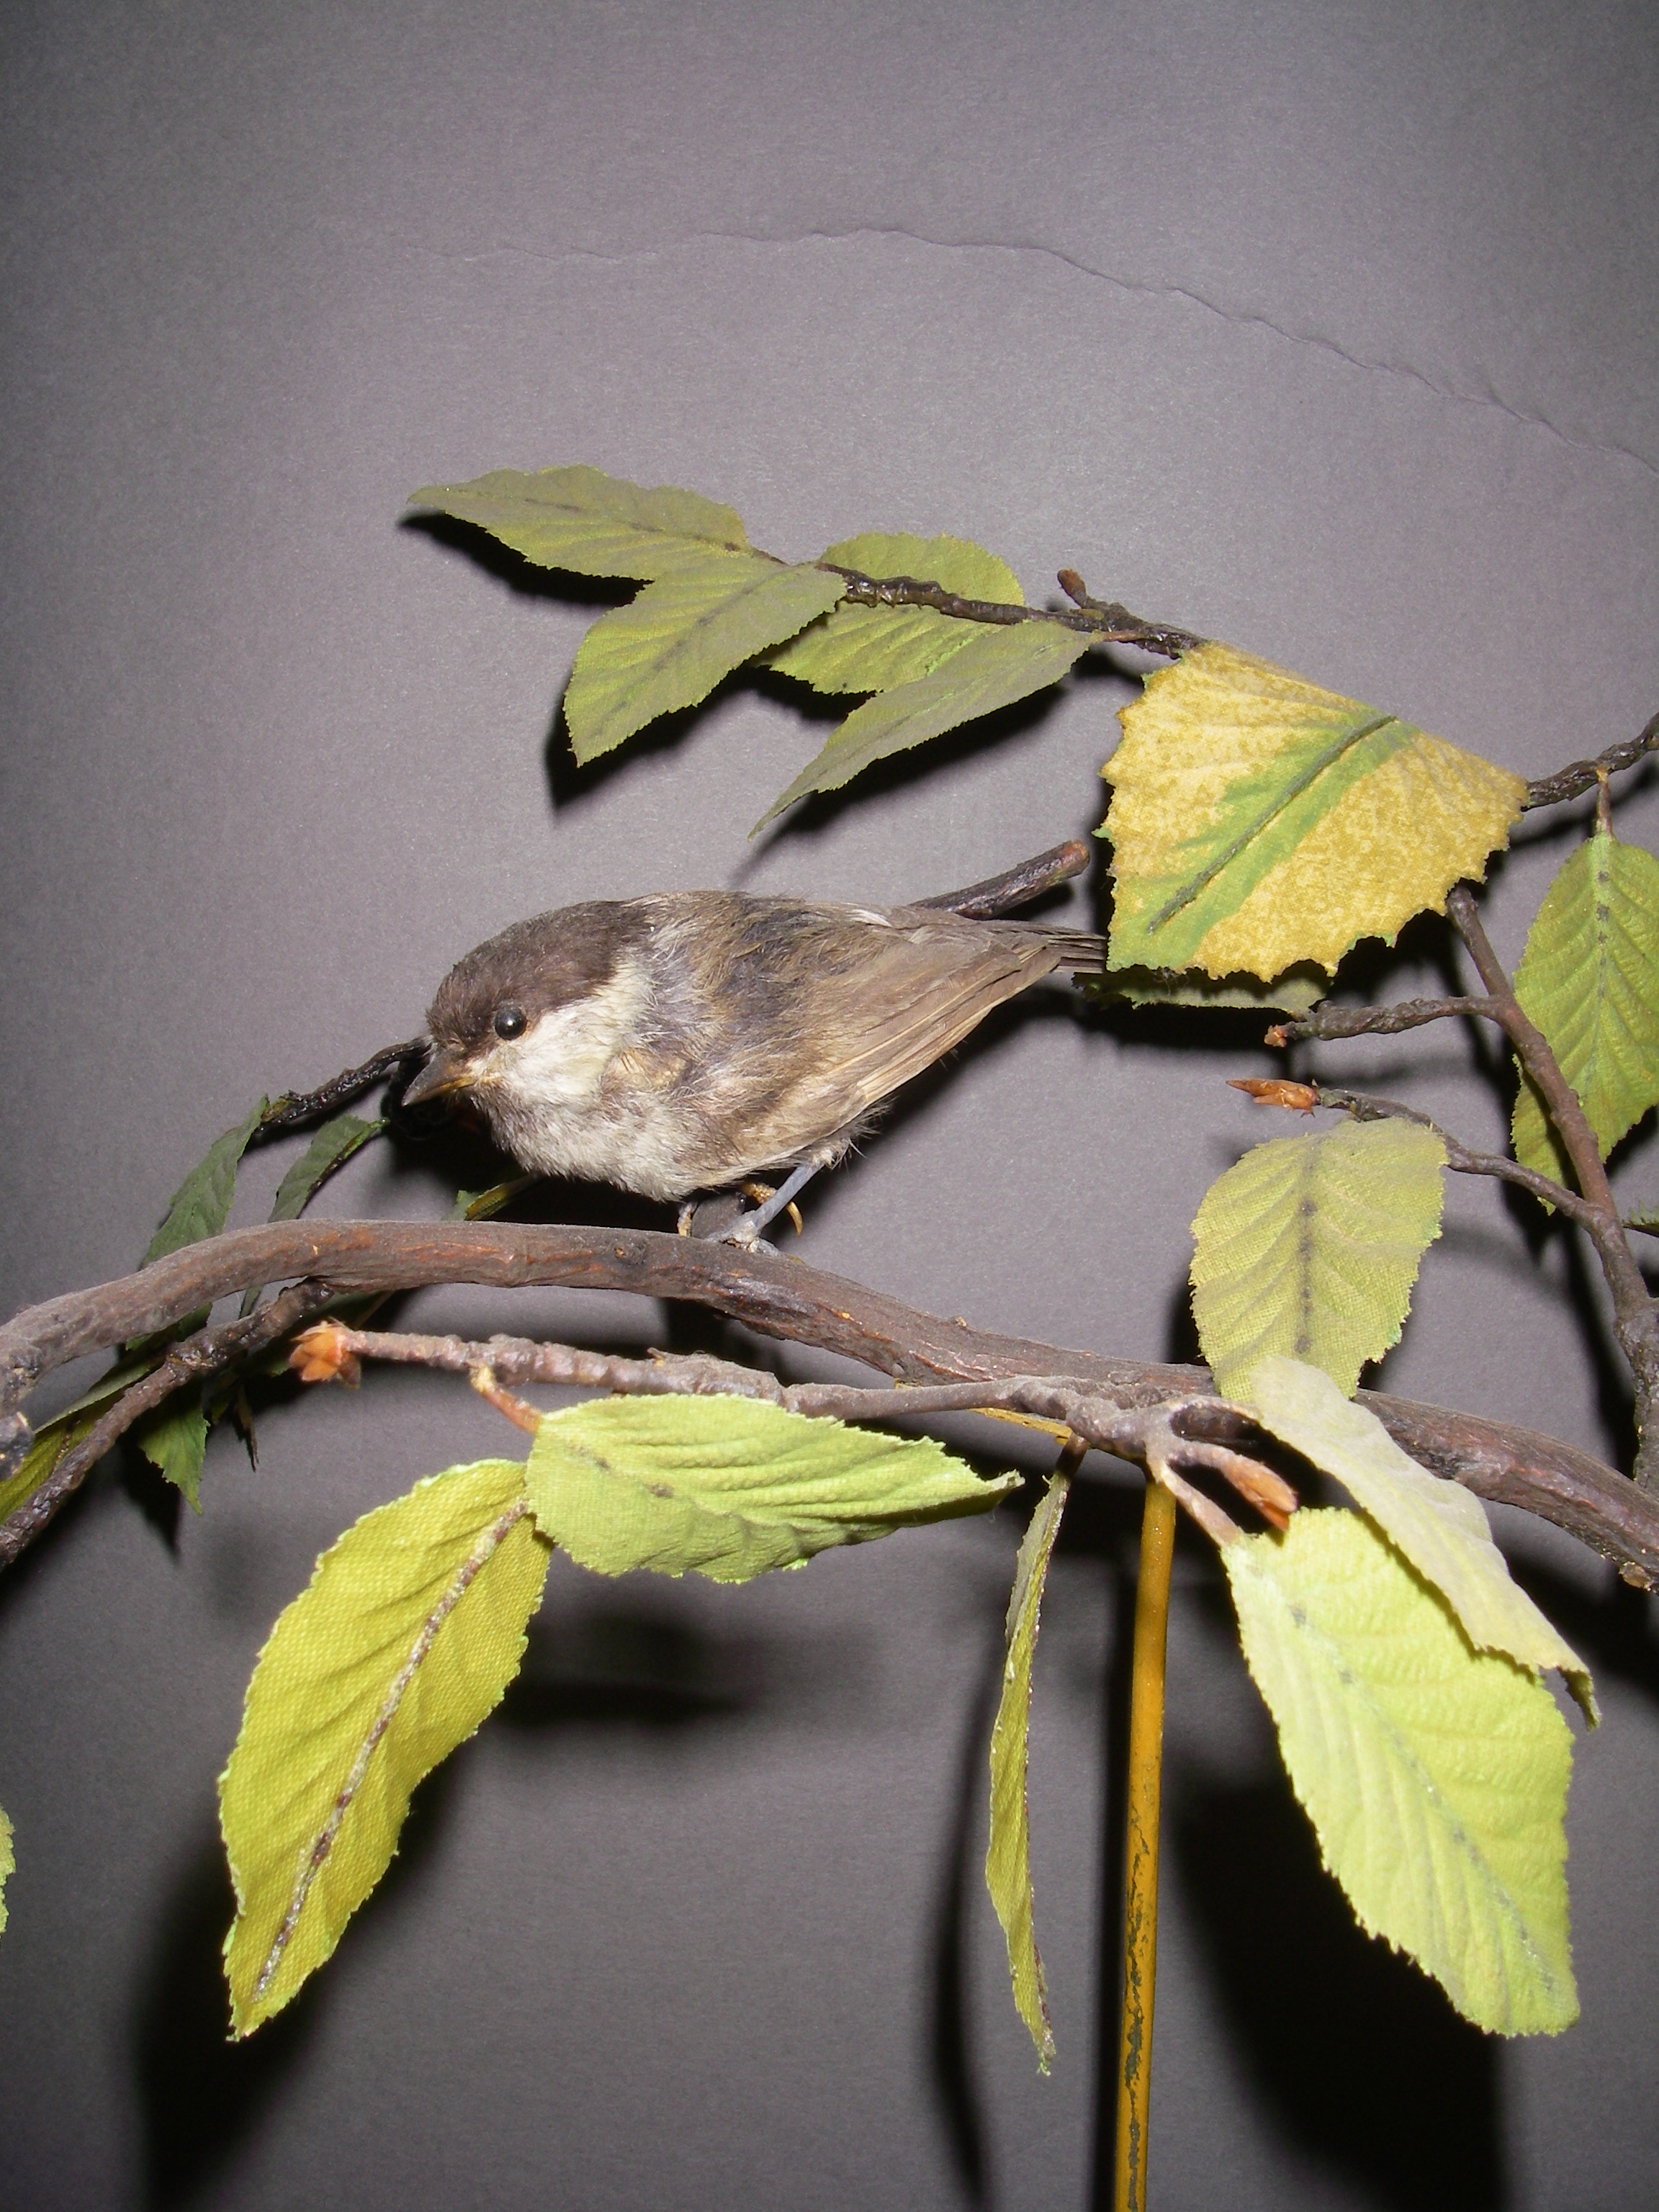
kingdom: Animalia
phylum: Chordata
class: Aves
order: Passeriformes
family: Paridae
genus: Poecile
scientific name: Poecile palustris
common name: Marsh tit
